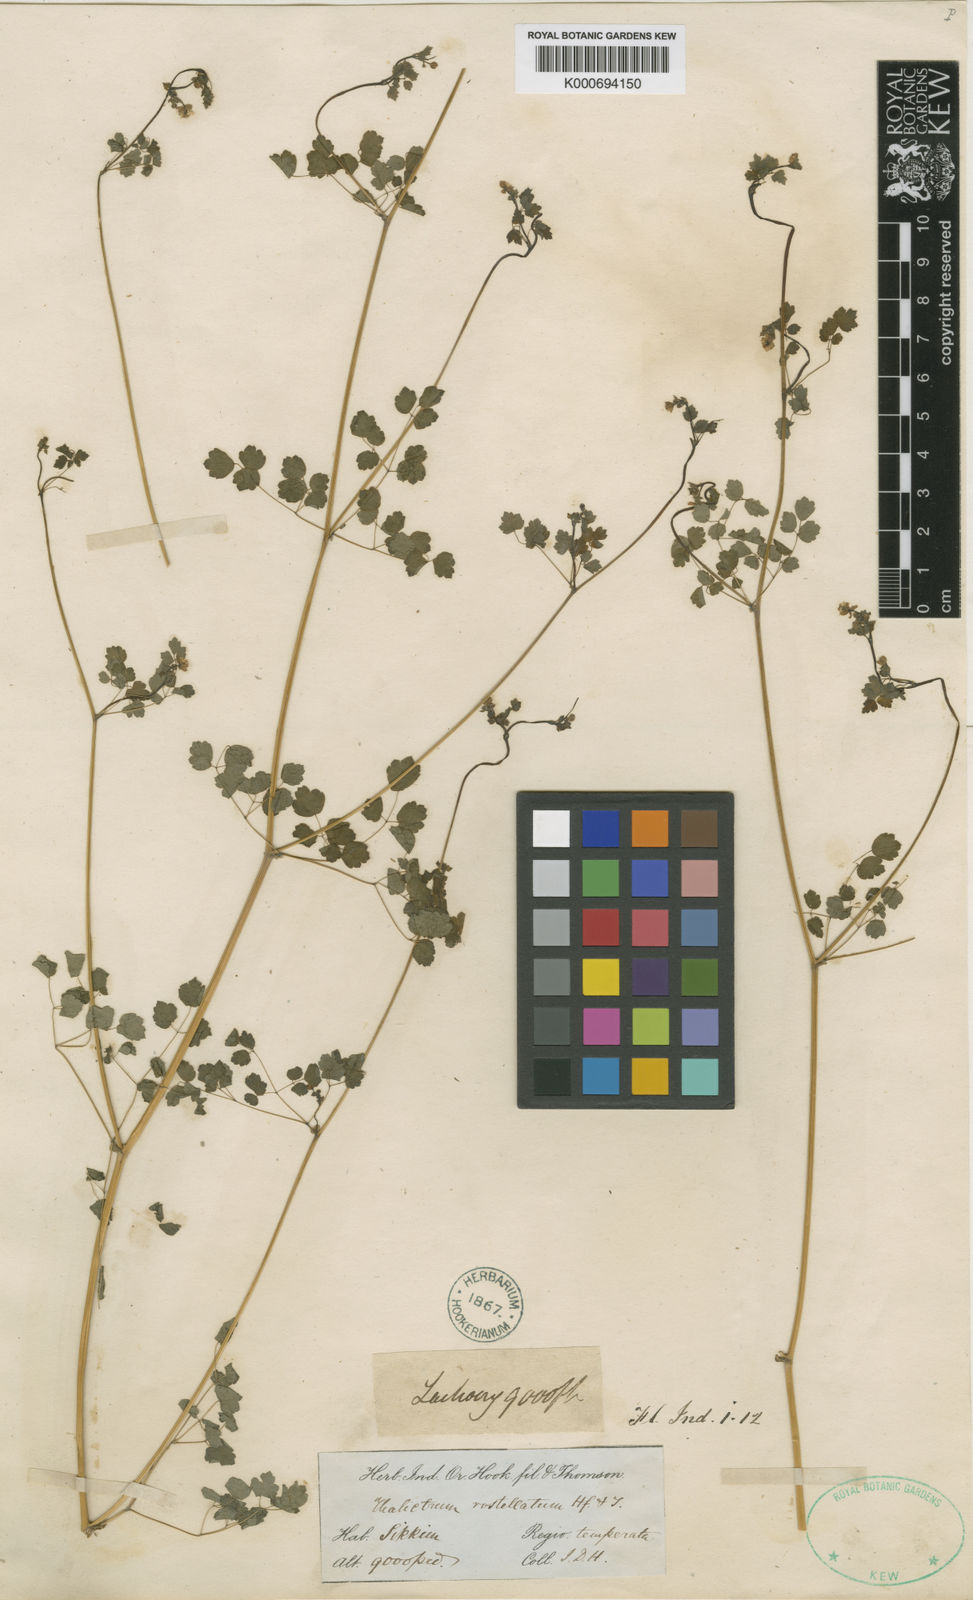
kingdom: Plantae
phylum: Tracheophyta
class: Magnoliopsida
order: Ranunculales
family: Ranunculaceae
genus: Thalictrum
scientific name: Thalictrum rostellatum
